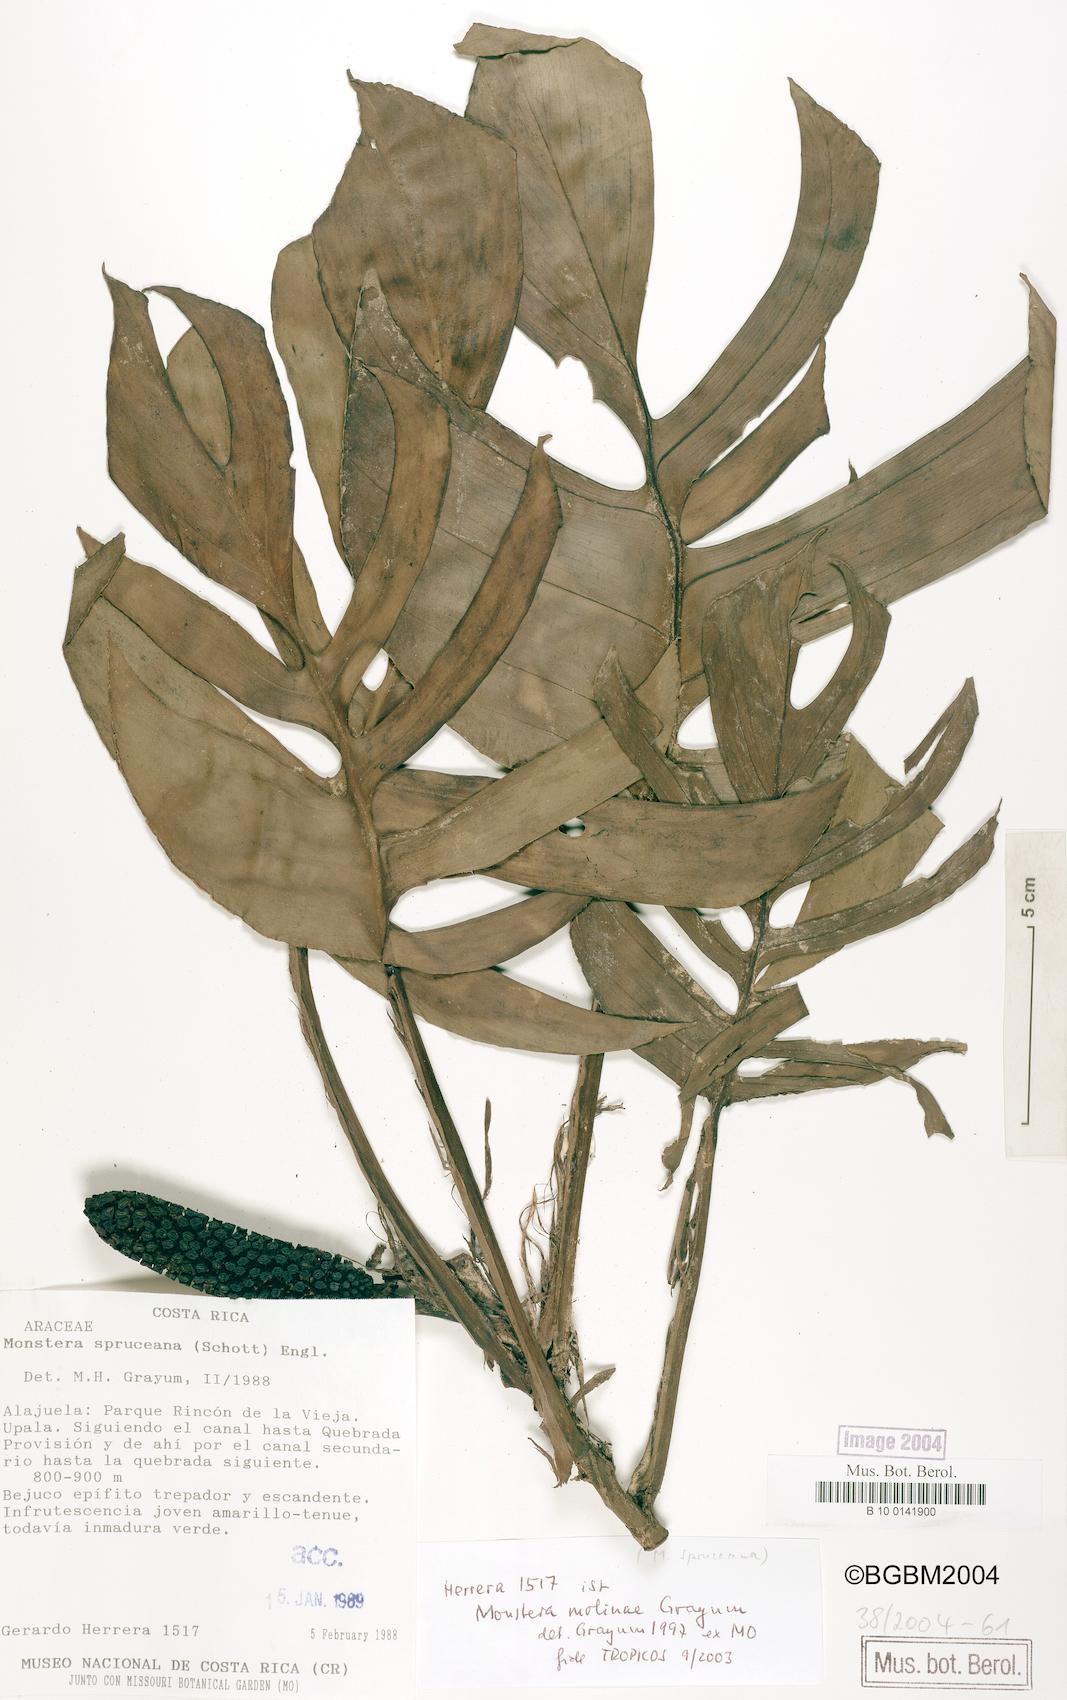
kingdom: Plantae
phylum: Tracheophyta
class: Liliopsida
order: Alismatales
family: Araceae
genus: Monstera
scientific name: Monstera spruceana
